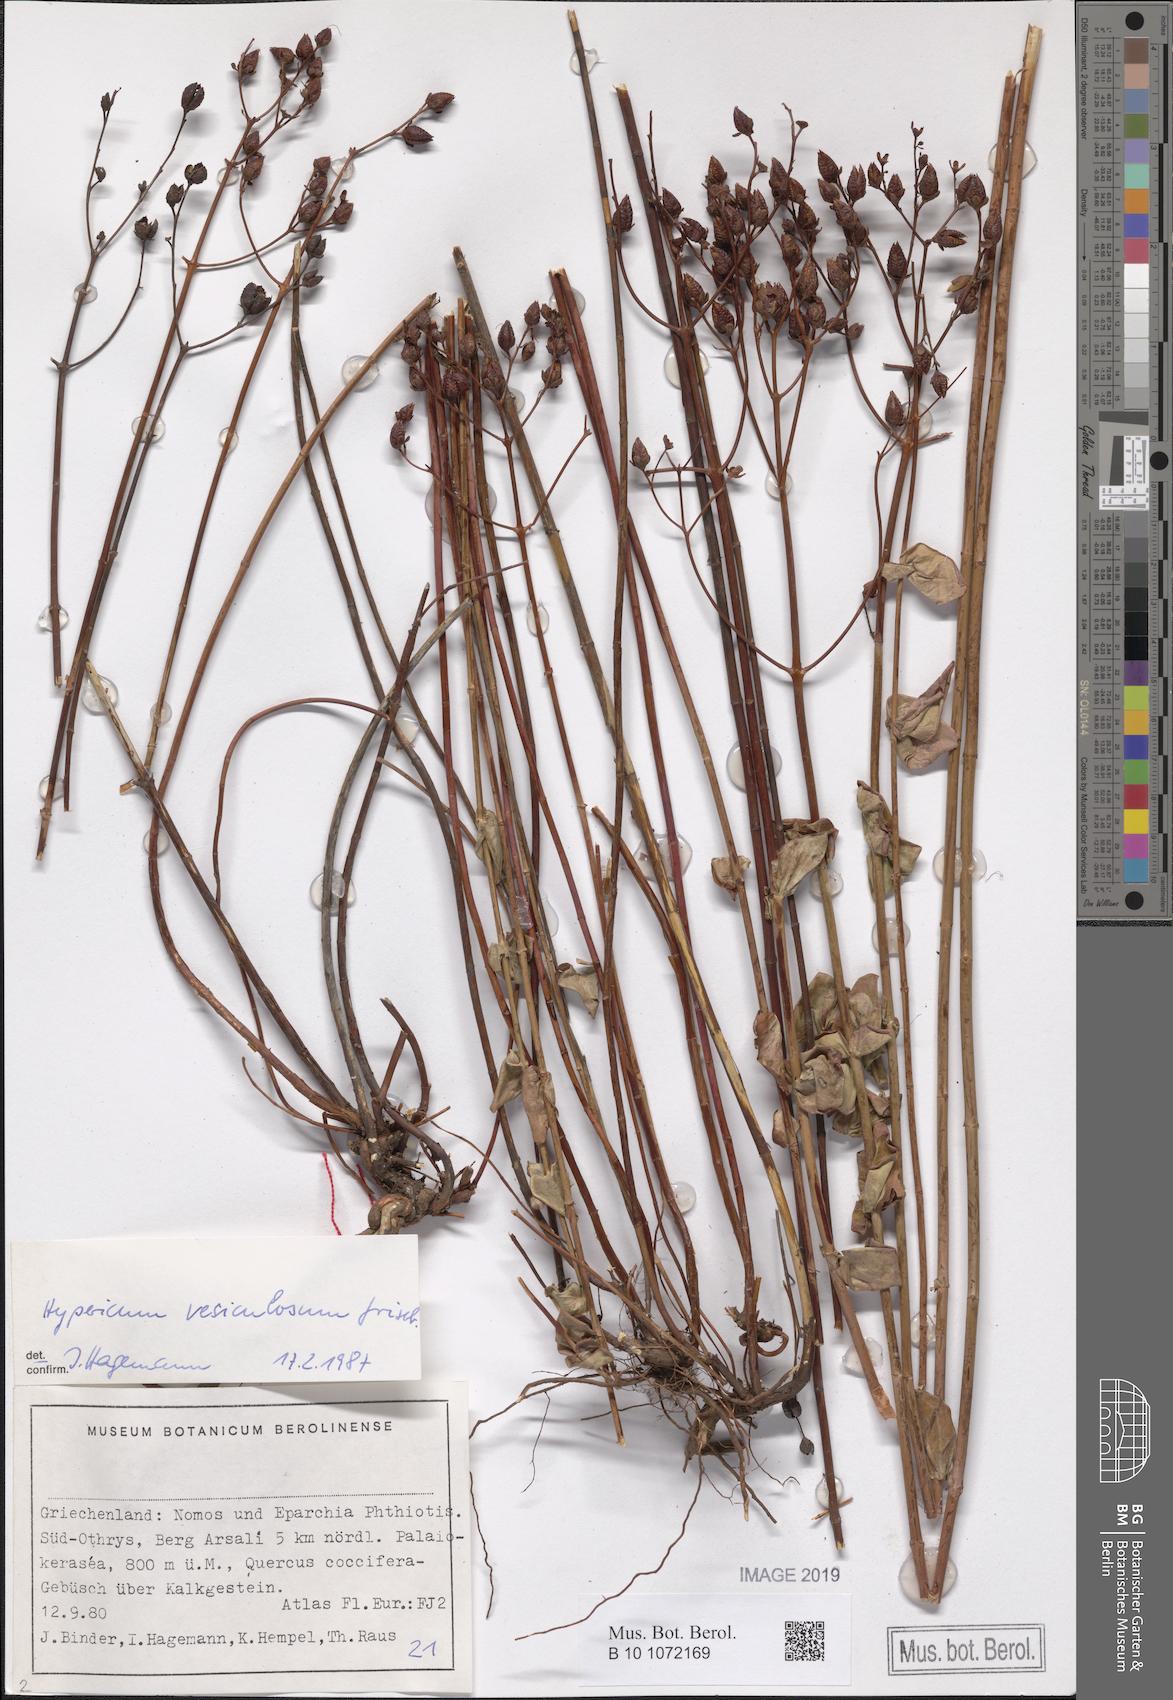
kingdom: Plantae
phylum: Tracheophyta
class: Magnoliopsida
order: Malpighiales
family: Hypericaceae
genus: Hypericum
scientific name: Hypericum vesiculosum
